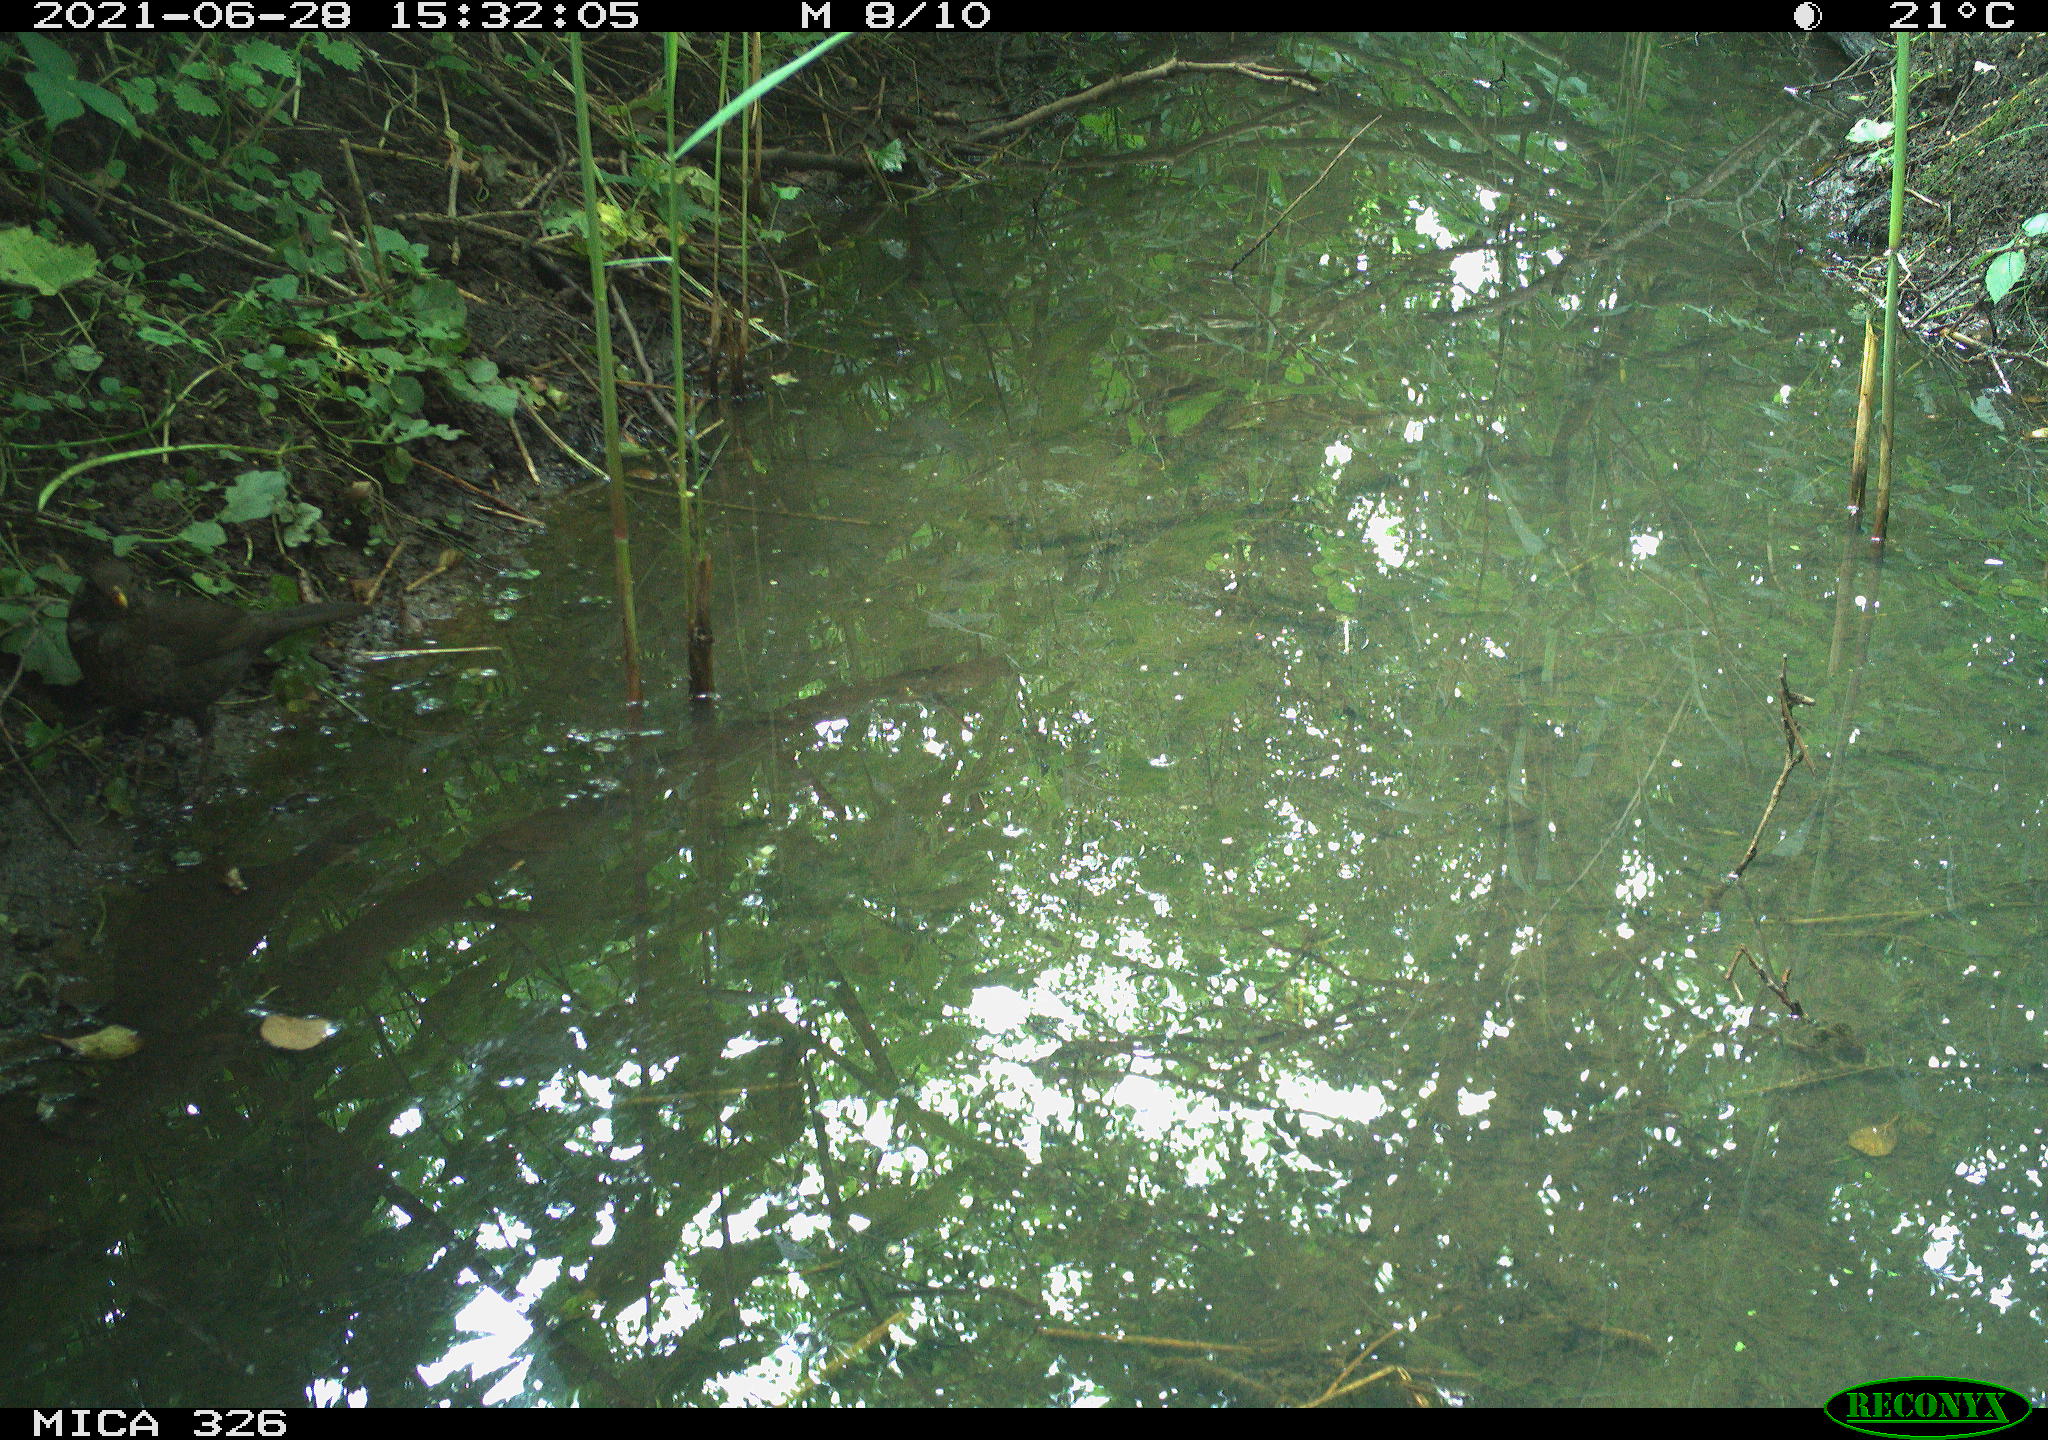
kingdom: Animalia
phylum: Chordata
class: Aves
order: Passeriformes
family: Turdidae
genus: Turdus
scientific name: Turdus merula
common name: Common blackbird
